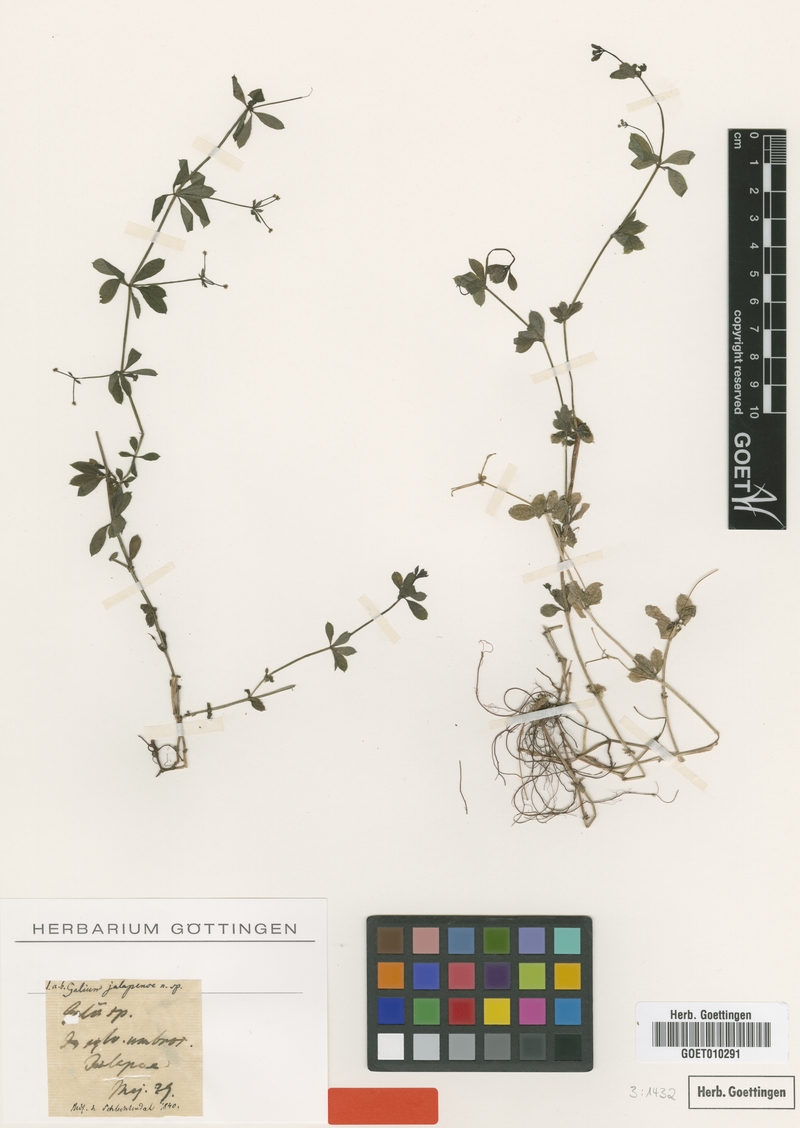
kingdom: Plantae
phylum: Tracheophyta
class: Magnoliopsida
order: Gentianales
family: Rubiaceae
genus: Galium
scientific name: Galium triflorum
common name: Fragrant bedstraw
